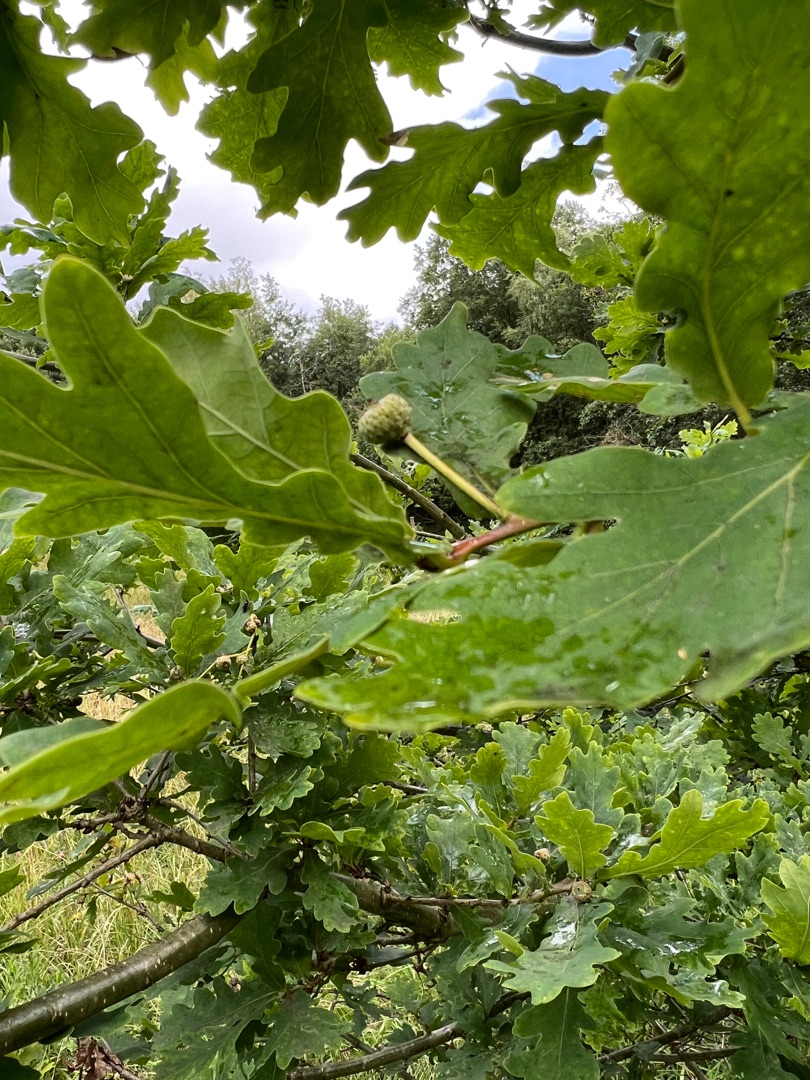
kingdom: Plantae
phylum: Tracheophyta
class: Magnoliopsida
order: Fagales
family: Fagaceae
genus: Quercus
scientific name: Quercus robur
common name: Stilk-eg/almindelig eg
